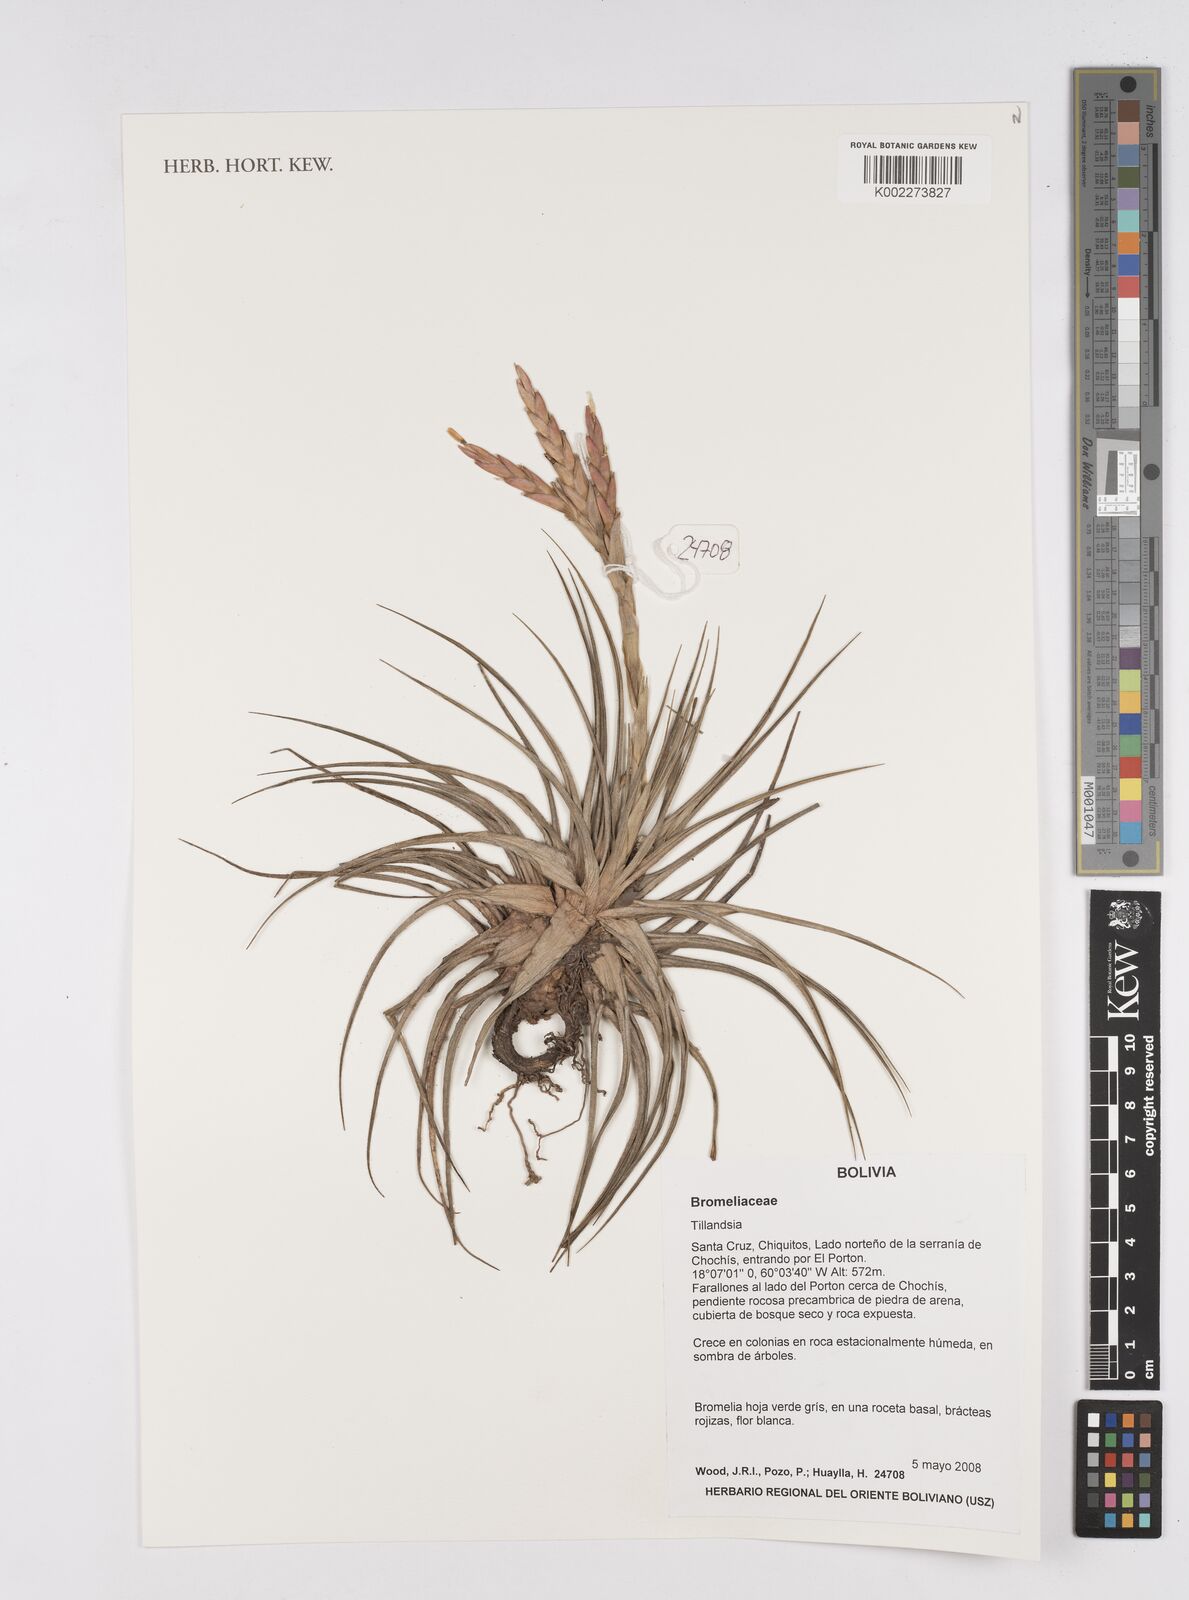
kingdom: Plantae
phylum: Tracheophyta
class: Liliopsida
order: Poales
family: Bromeliaceae
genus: Tillandsia
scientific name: Tillandsia
